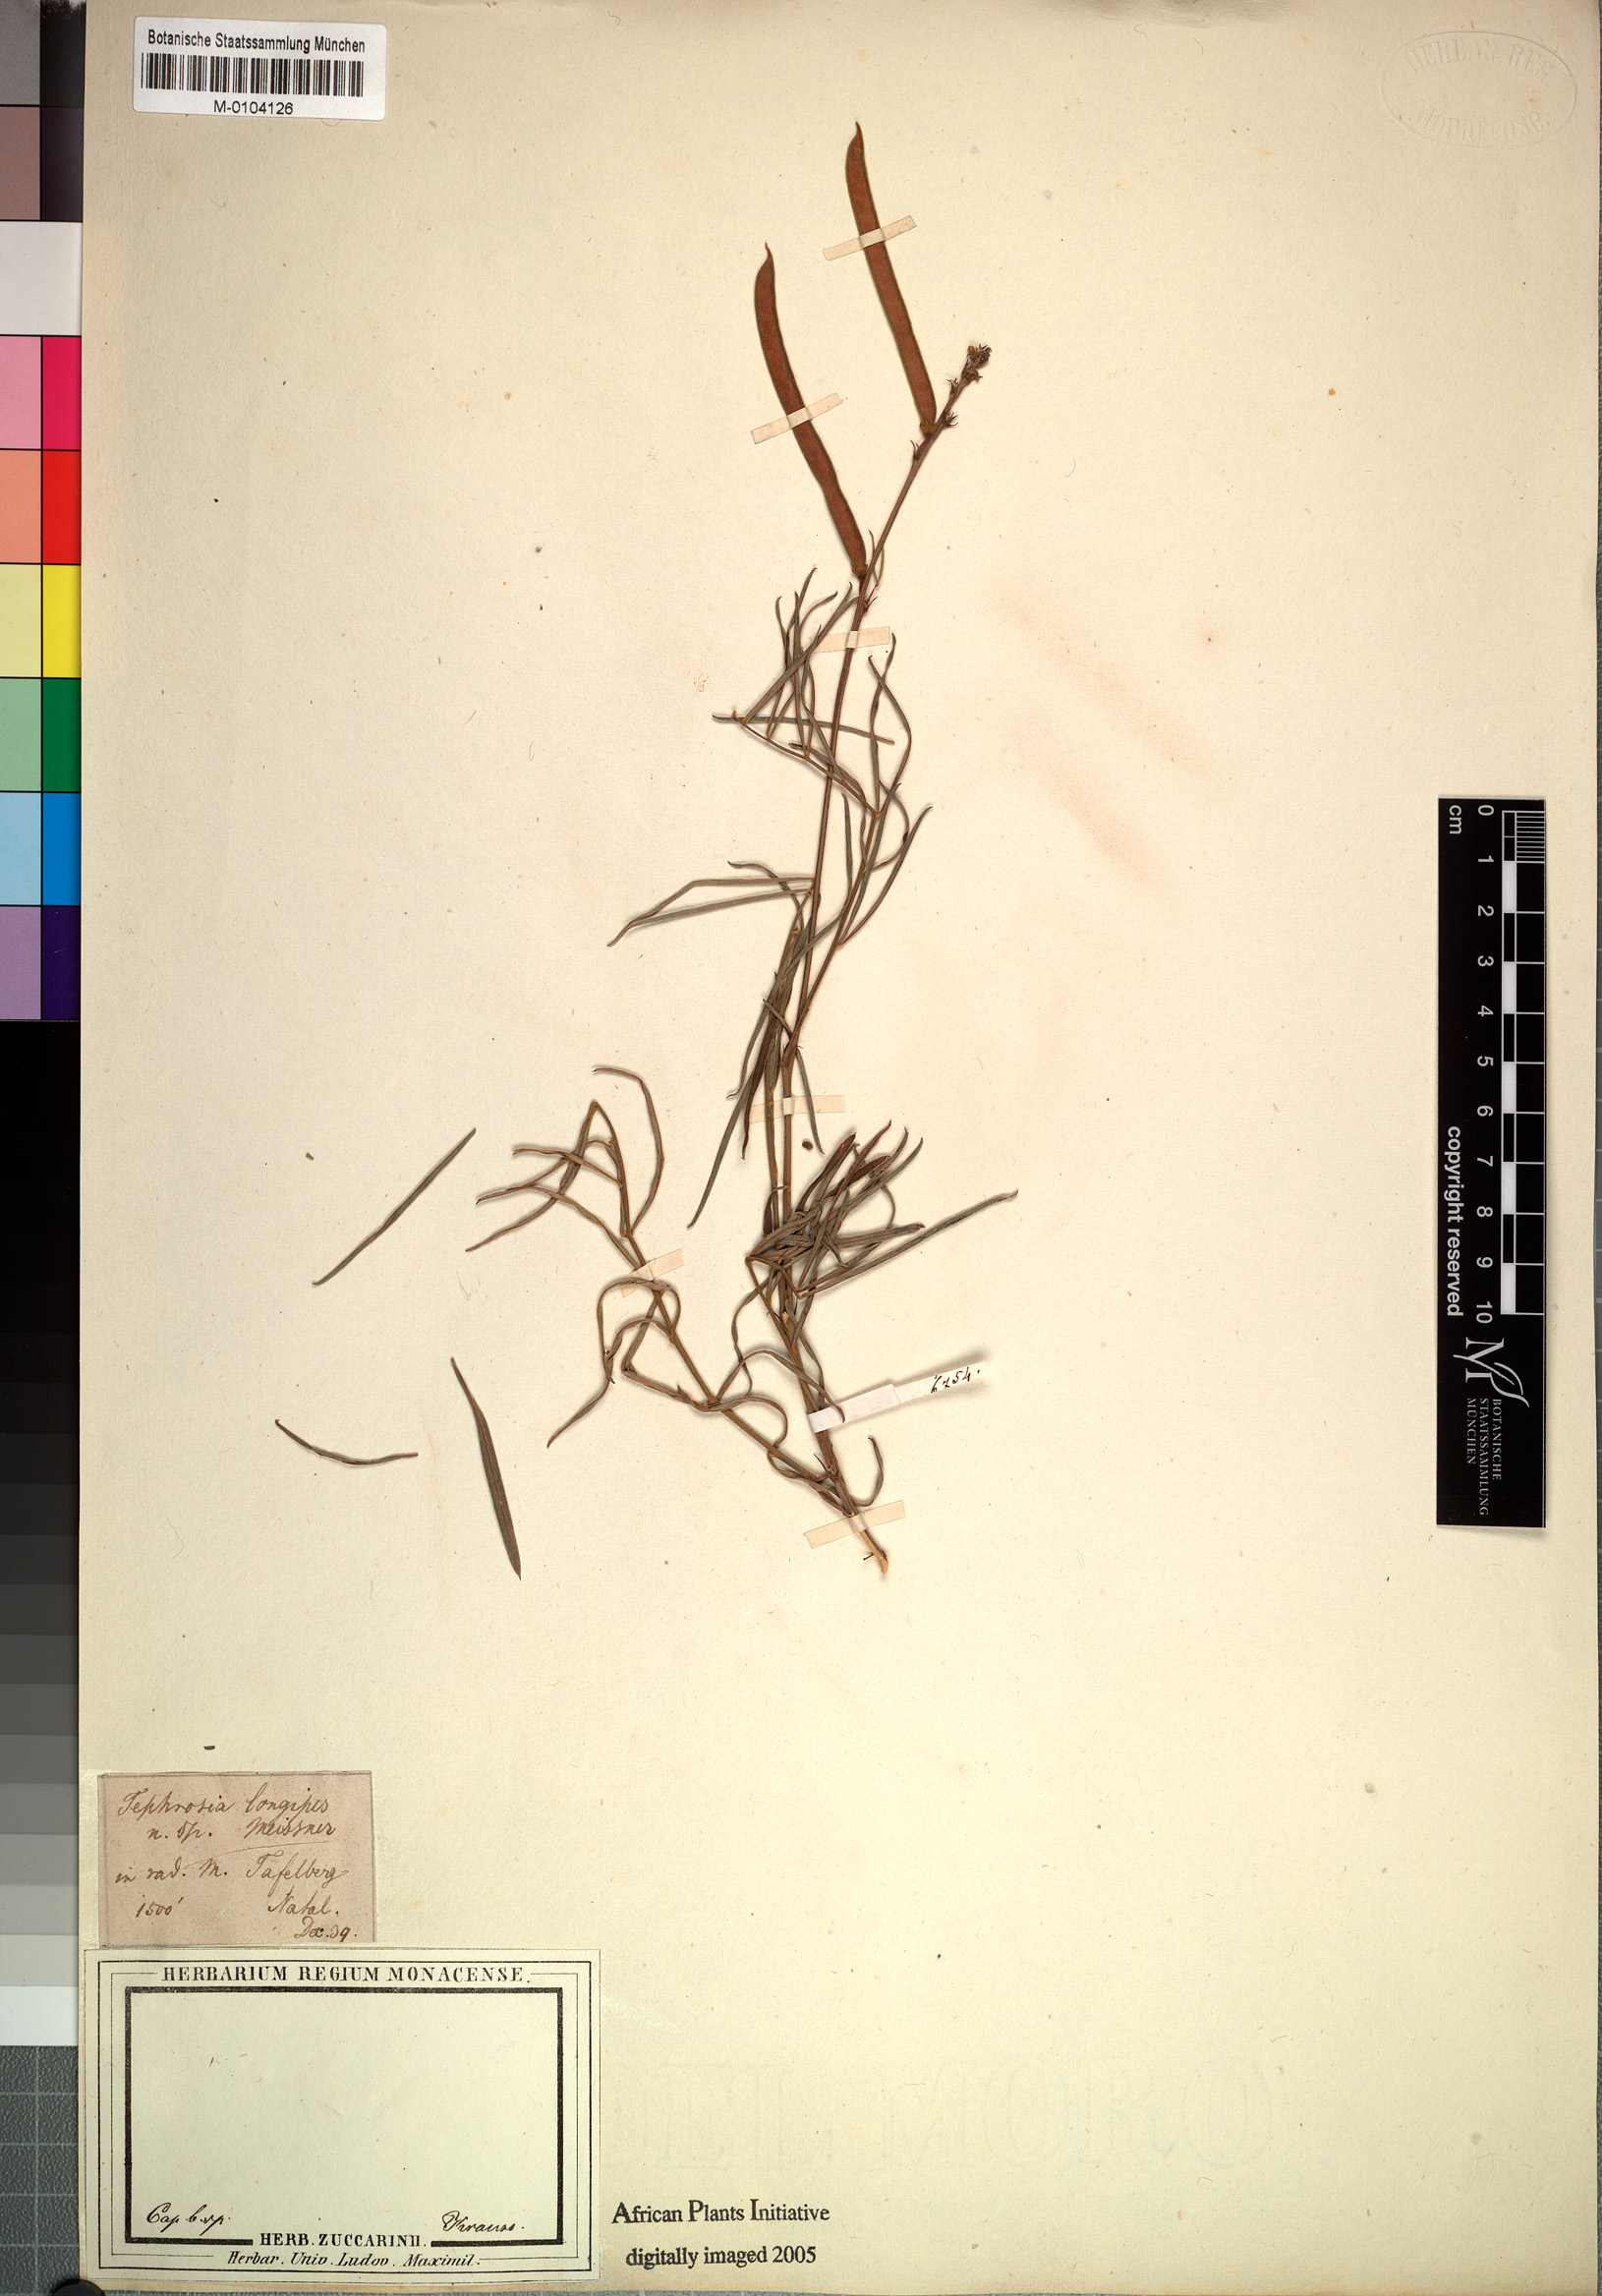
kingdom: Plantae
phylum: Tracheophyta
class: Magnoliopsida
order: Fabales
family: Fabaceae
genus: Tephrosia
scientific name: Tephrosia longipes
